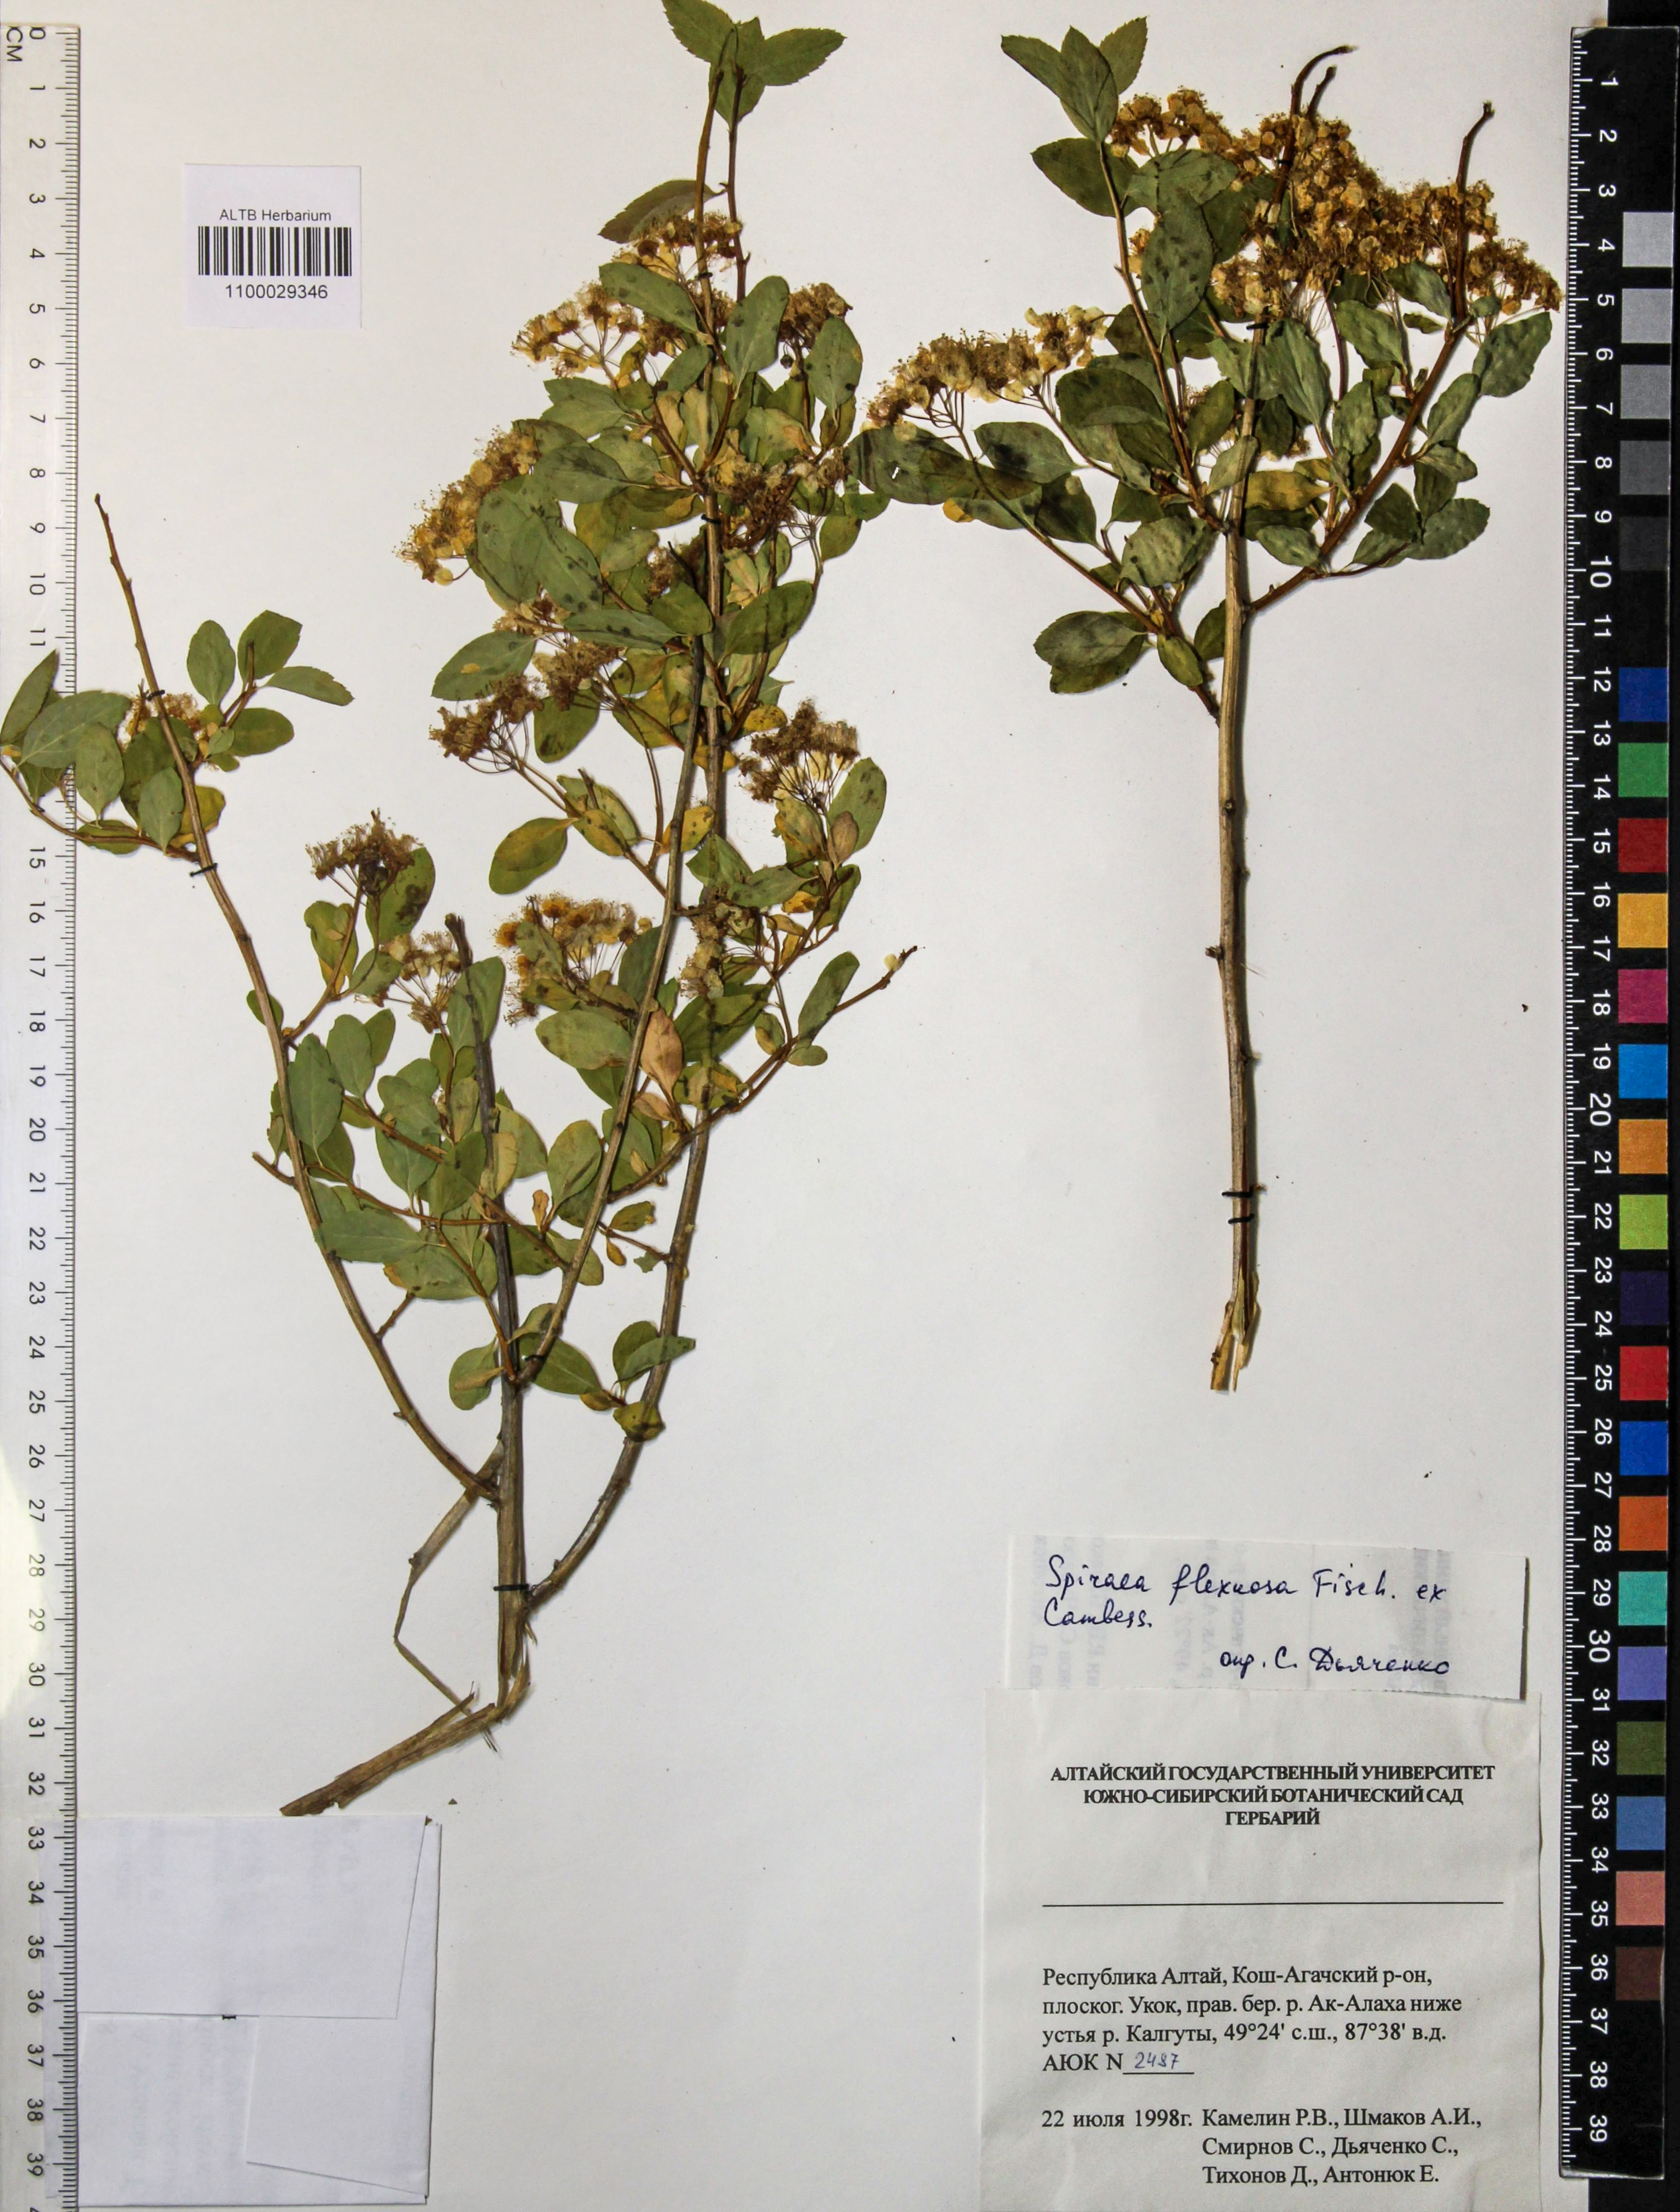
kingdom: Plantae
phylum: Tracheophyta
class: Magnoliopsida
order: Rosales
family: Rosaceae
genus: Spiraea
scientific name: Spiraea flexuosa
